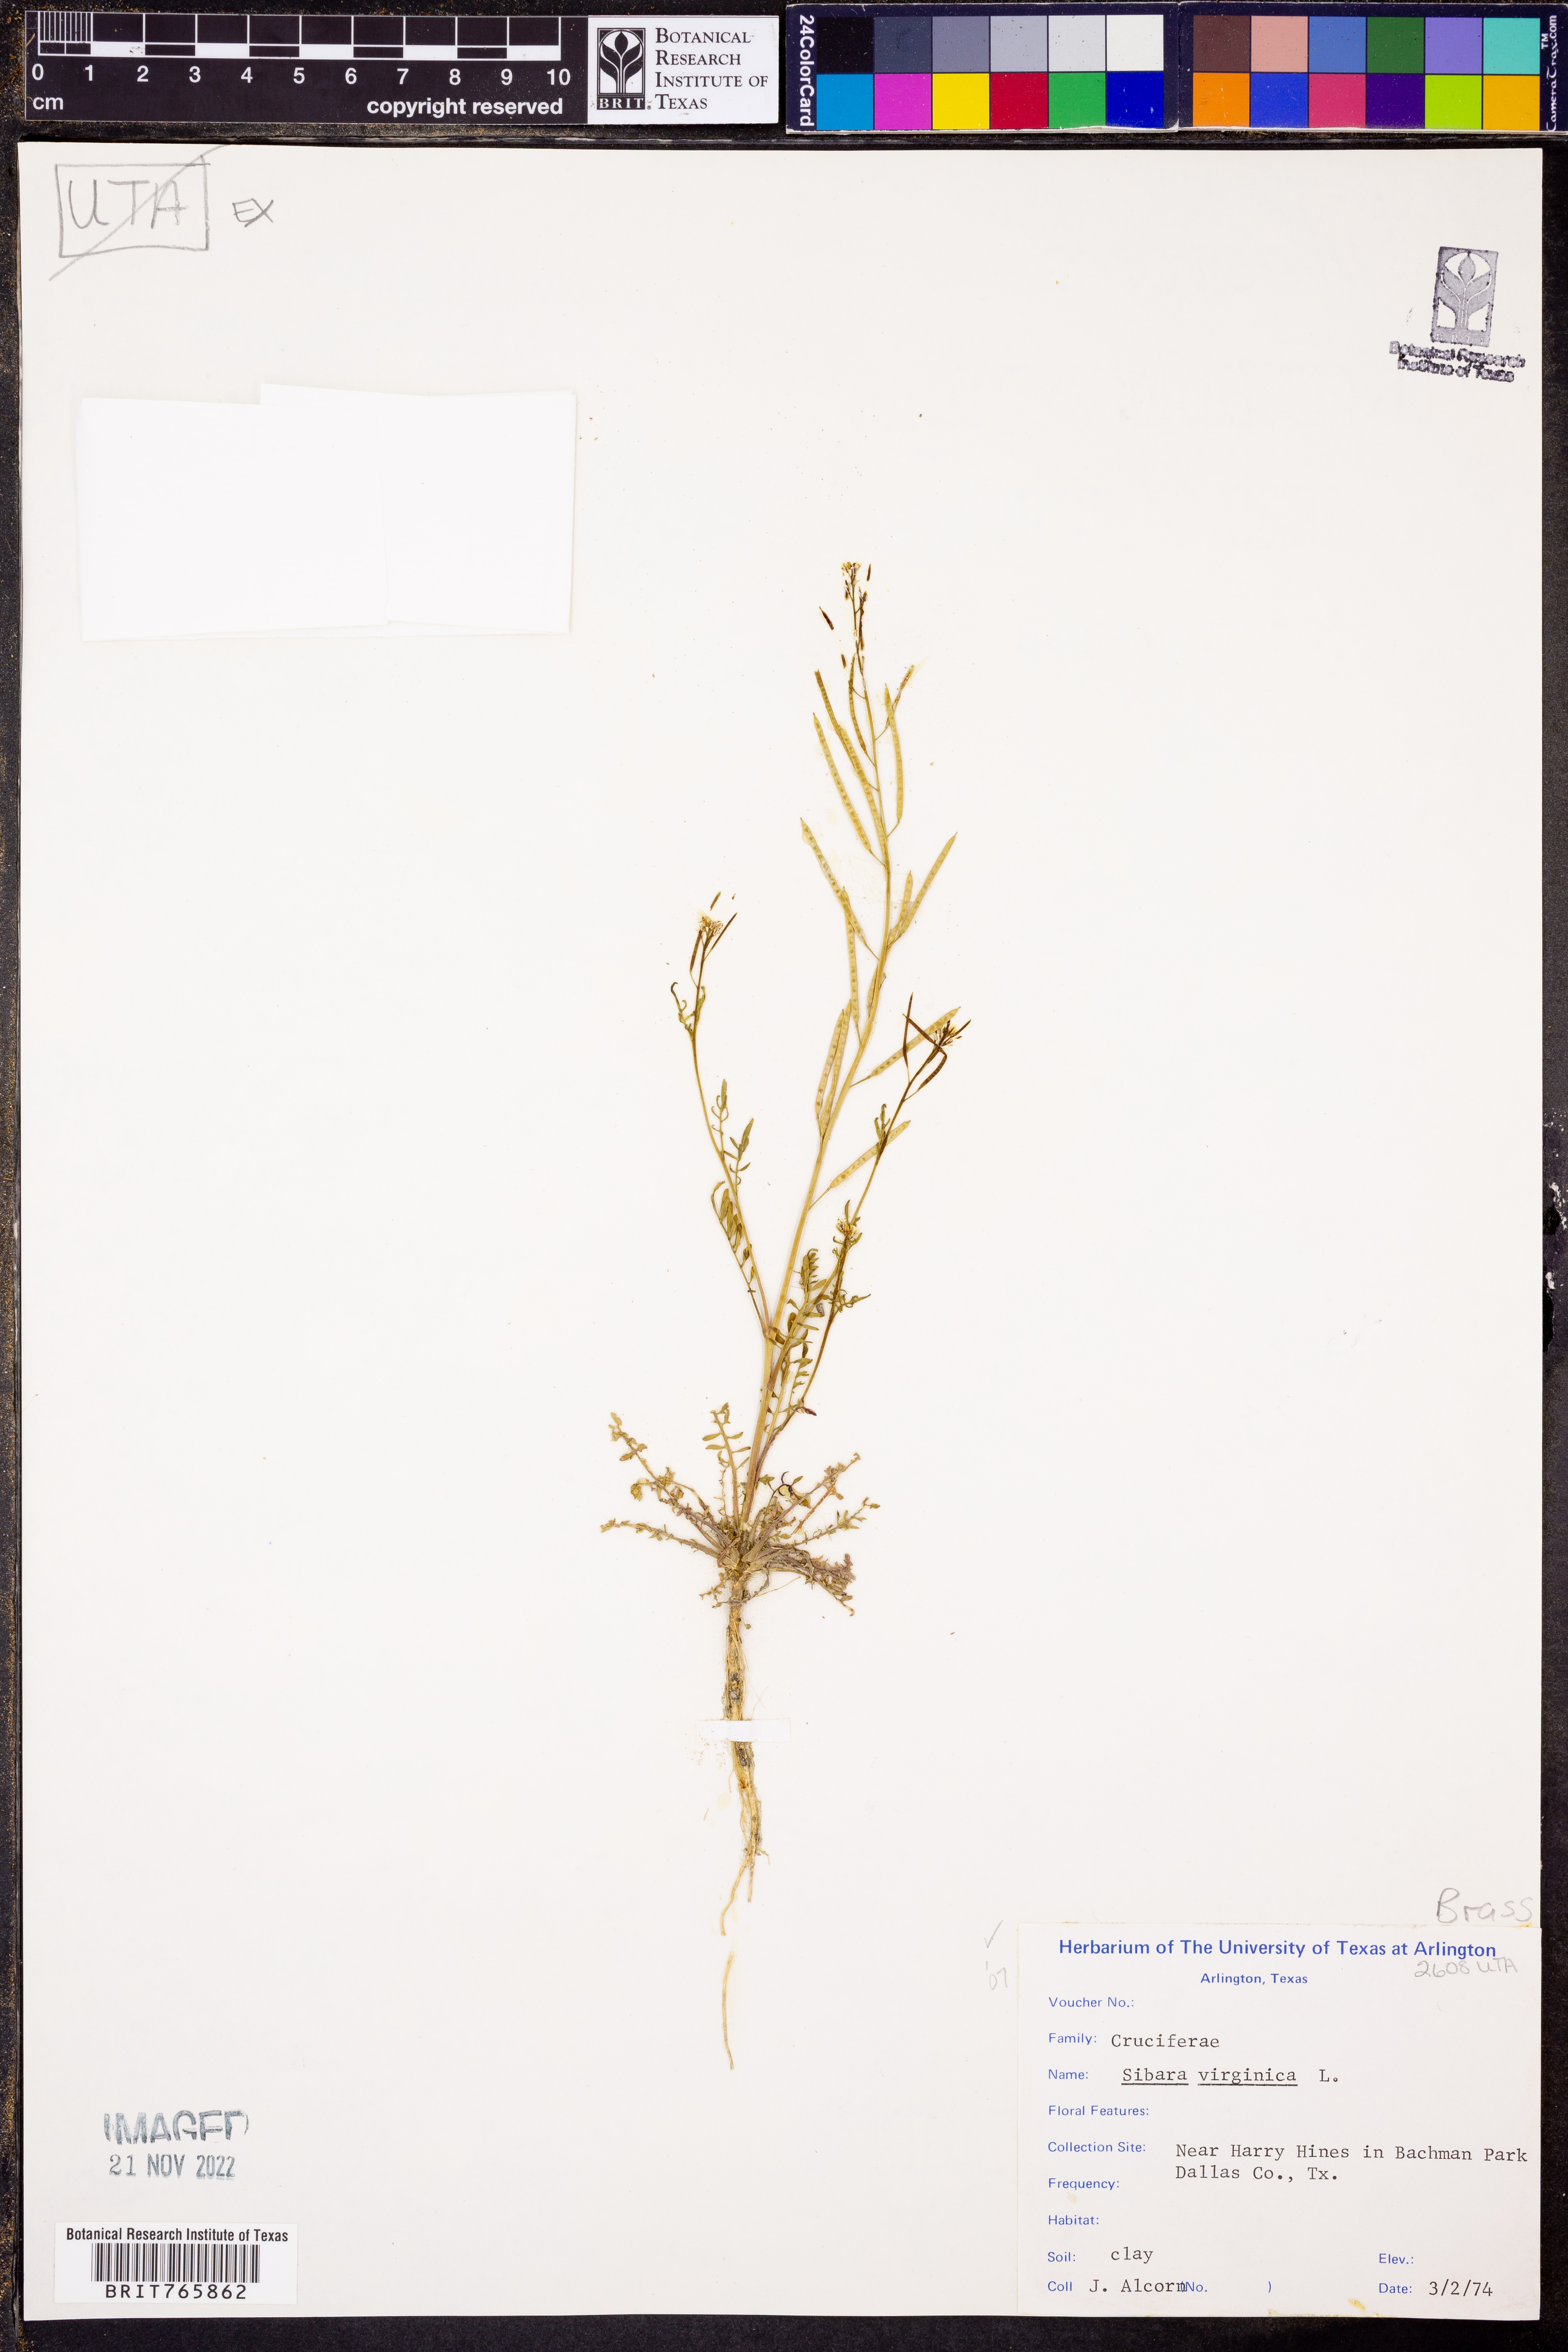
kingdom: Plantae
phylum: Tracheophyta
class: Magnoliopsida
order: Brassicales
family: Brassicaceae
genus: Planodes
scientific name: Planodes virginicum
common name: Virginia cress
